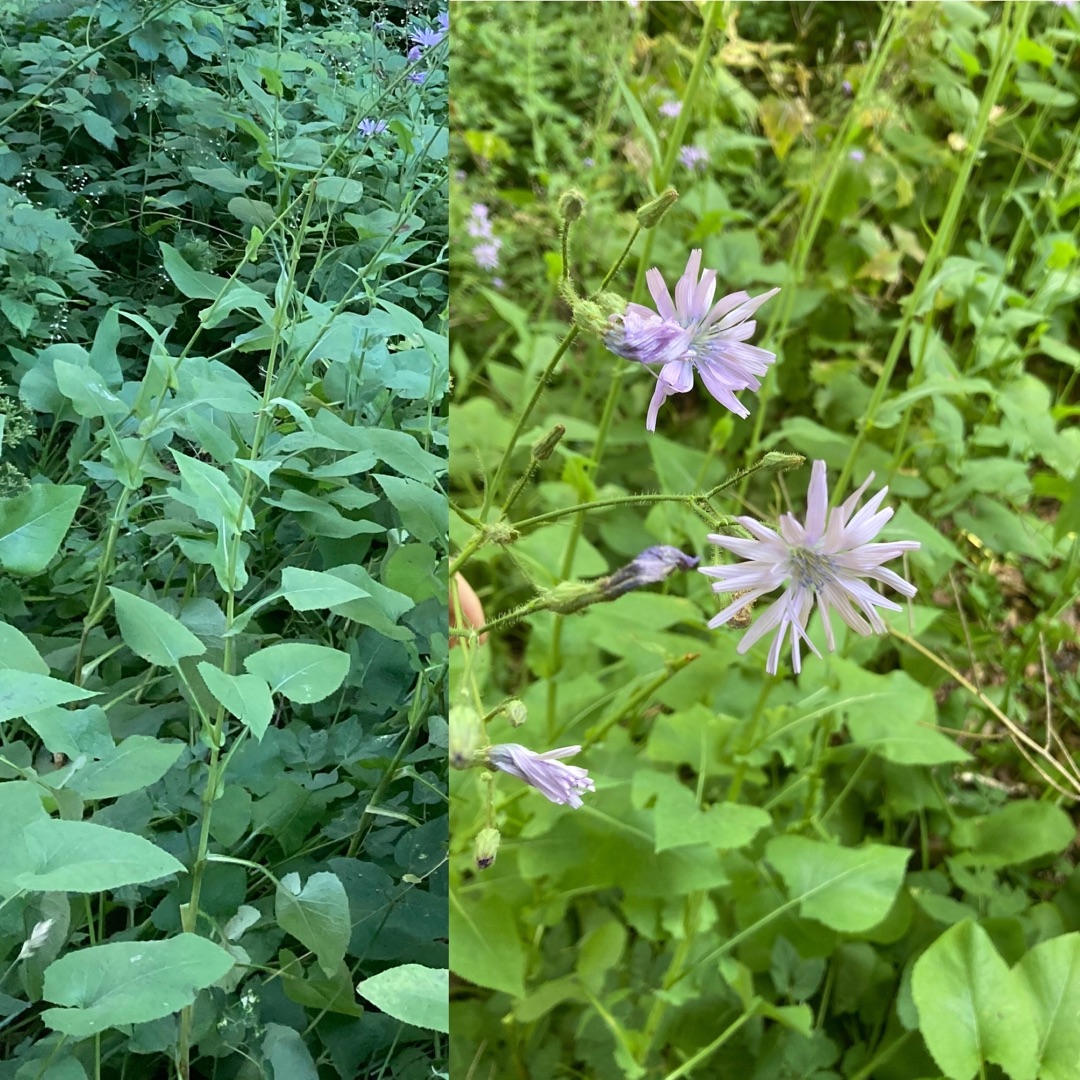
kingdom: Plantae
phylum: Tracheophyta
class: Magnoliopsida
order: Asterales
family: Asteraceae
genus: Lactuca
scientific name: Lactuca macrophylla
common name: Kæmpe-salat
